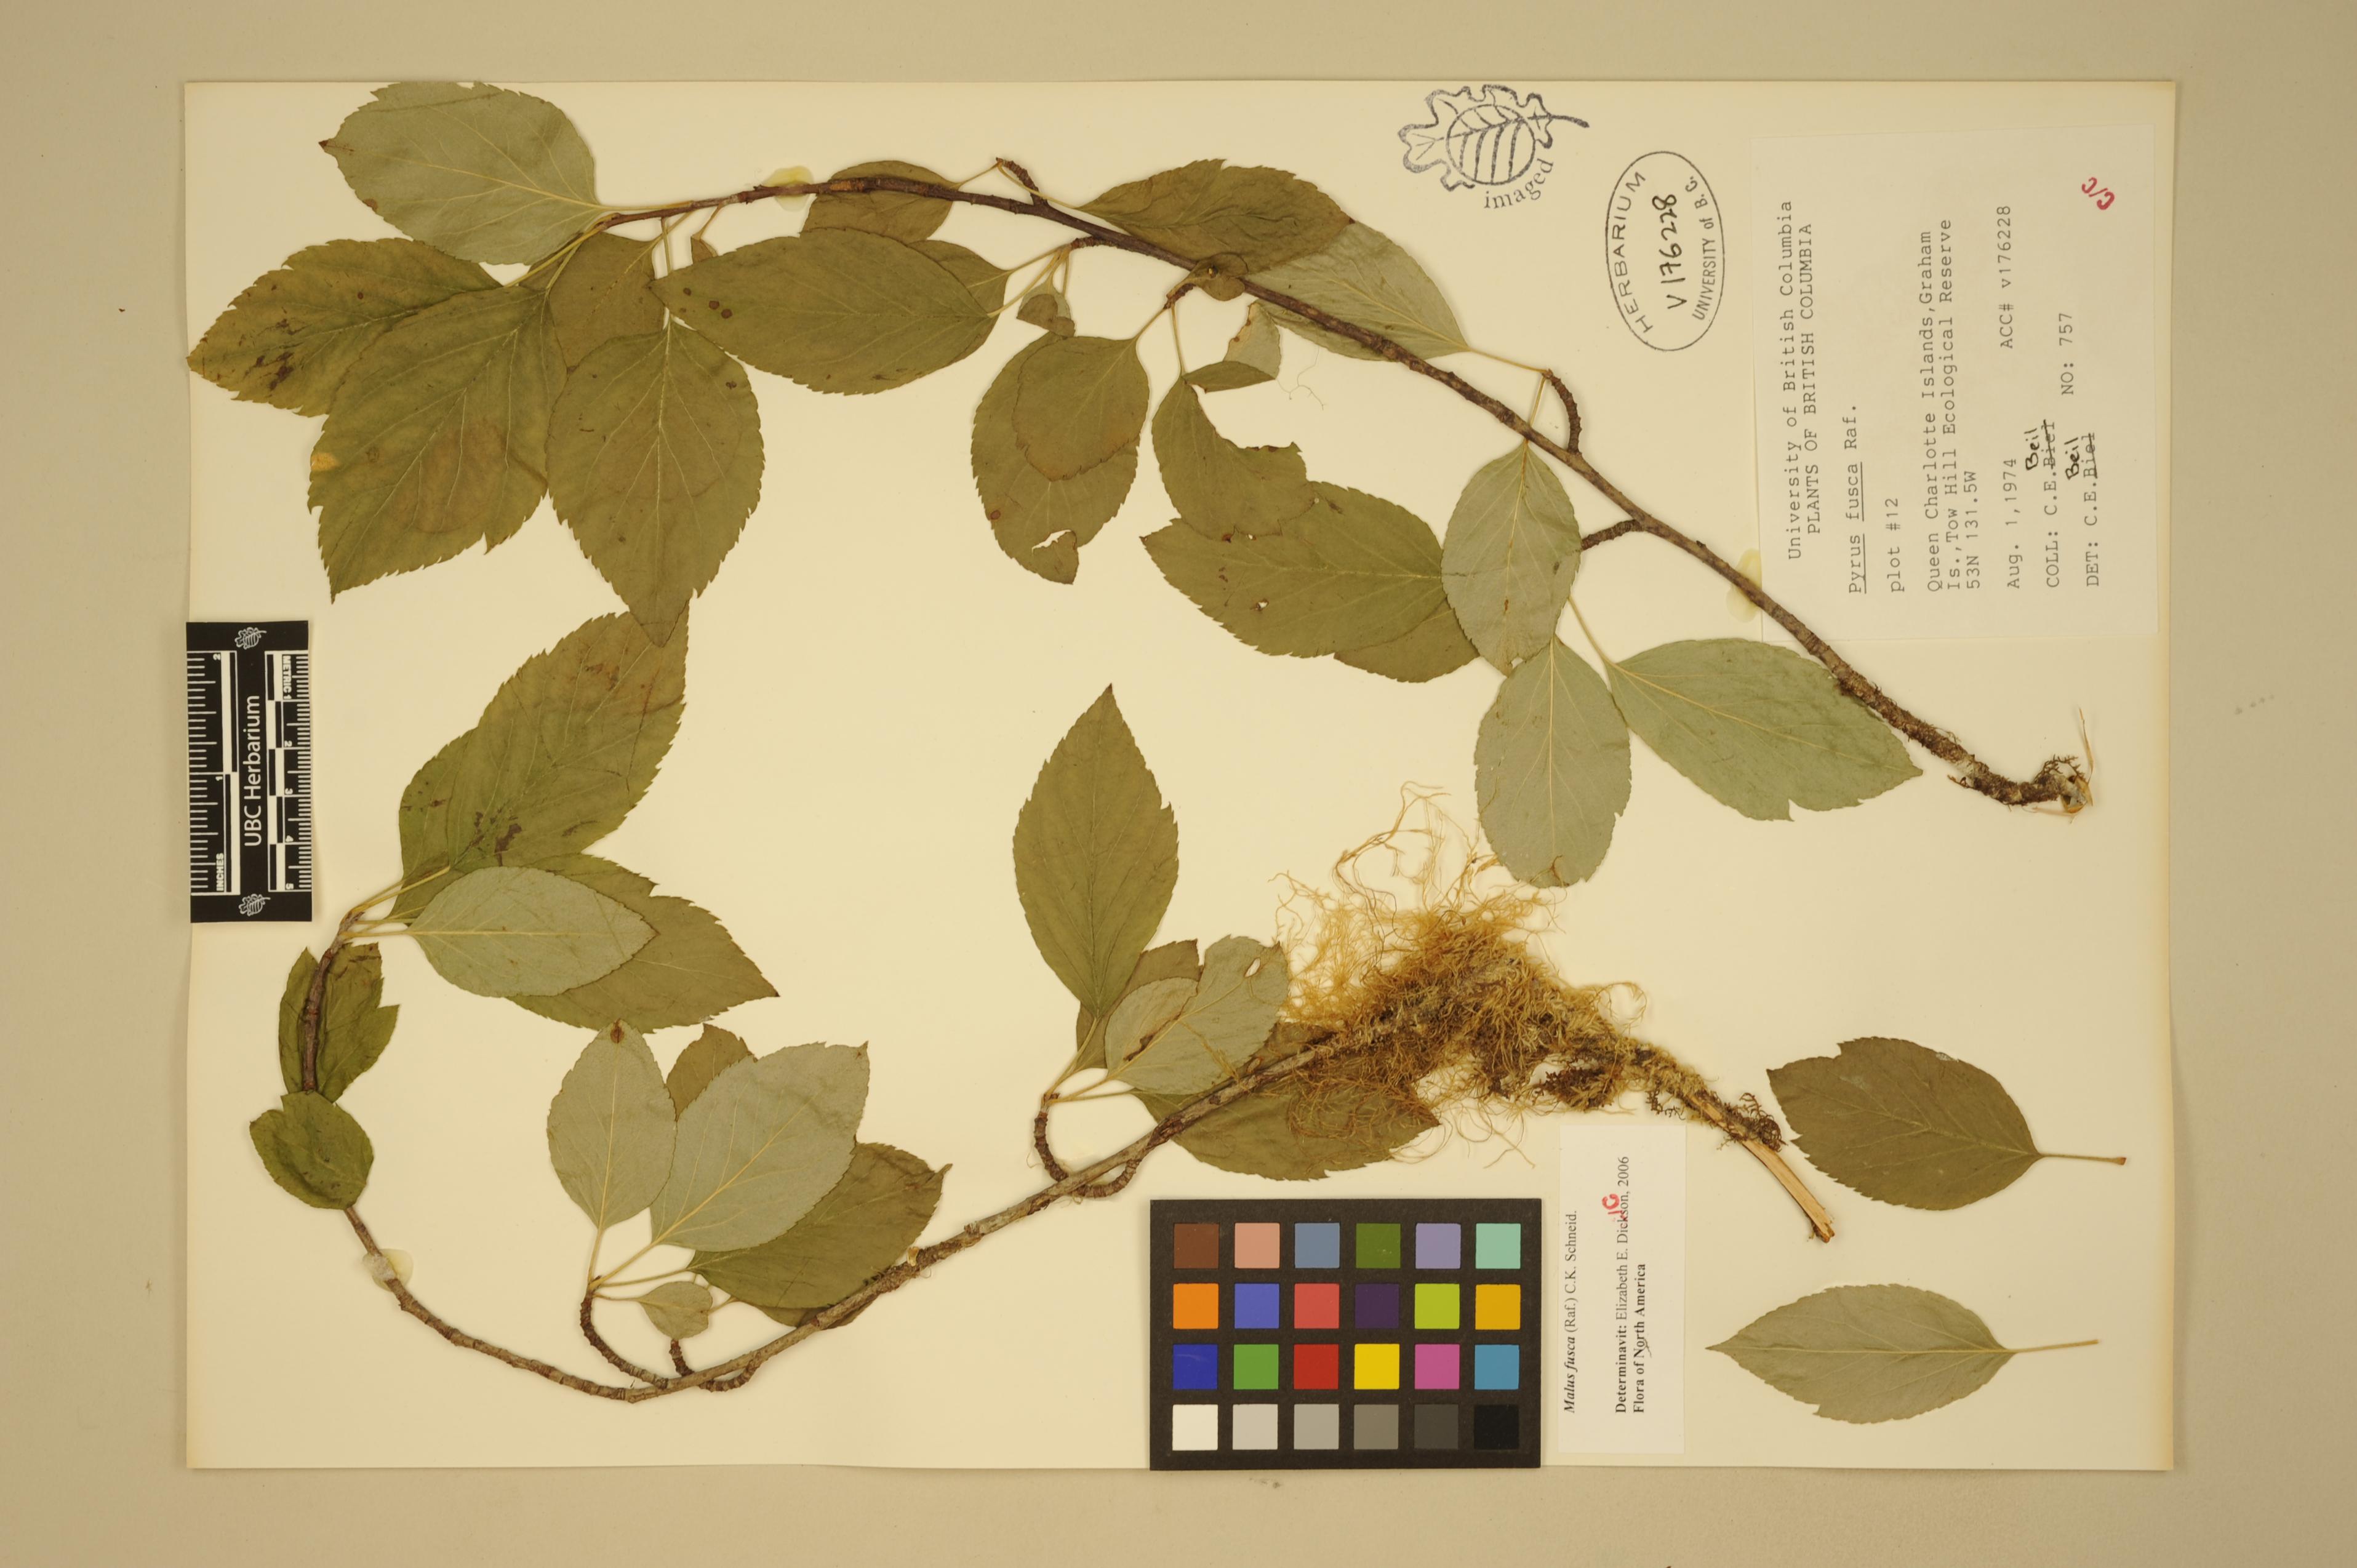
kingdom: Plantae
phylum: Tracheophyta
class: Magnoliopsida
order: Rosales
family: Rosaceae
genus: Malus
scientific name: Malus fusca
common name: Oregon crab apple
